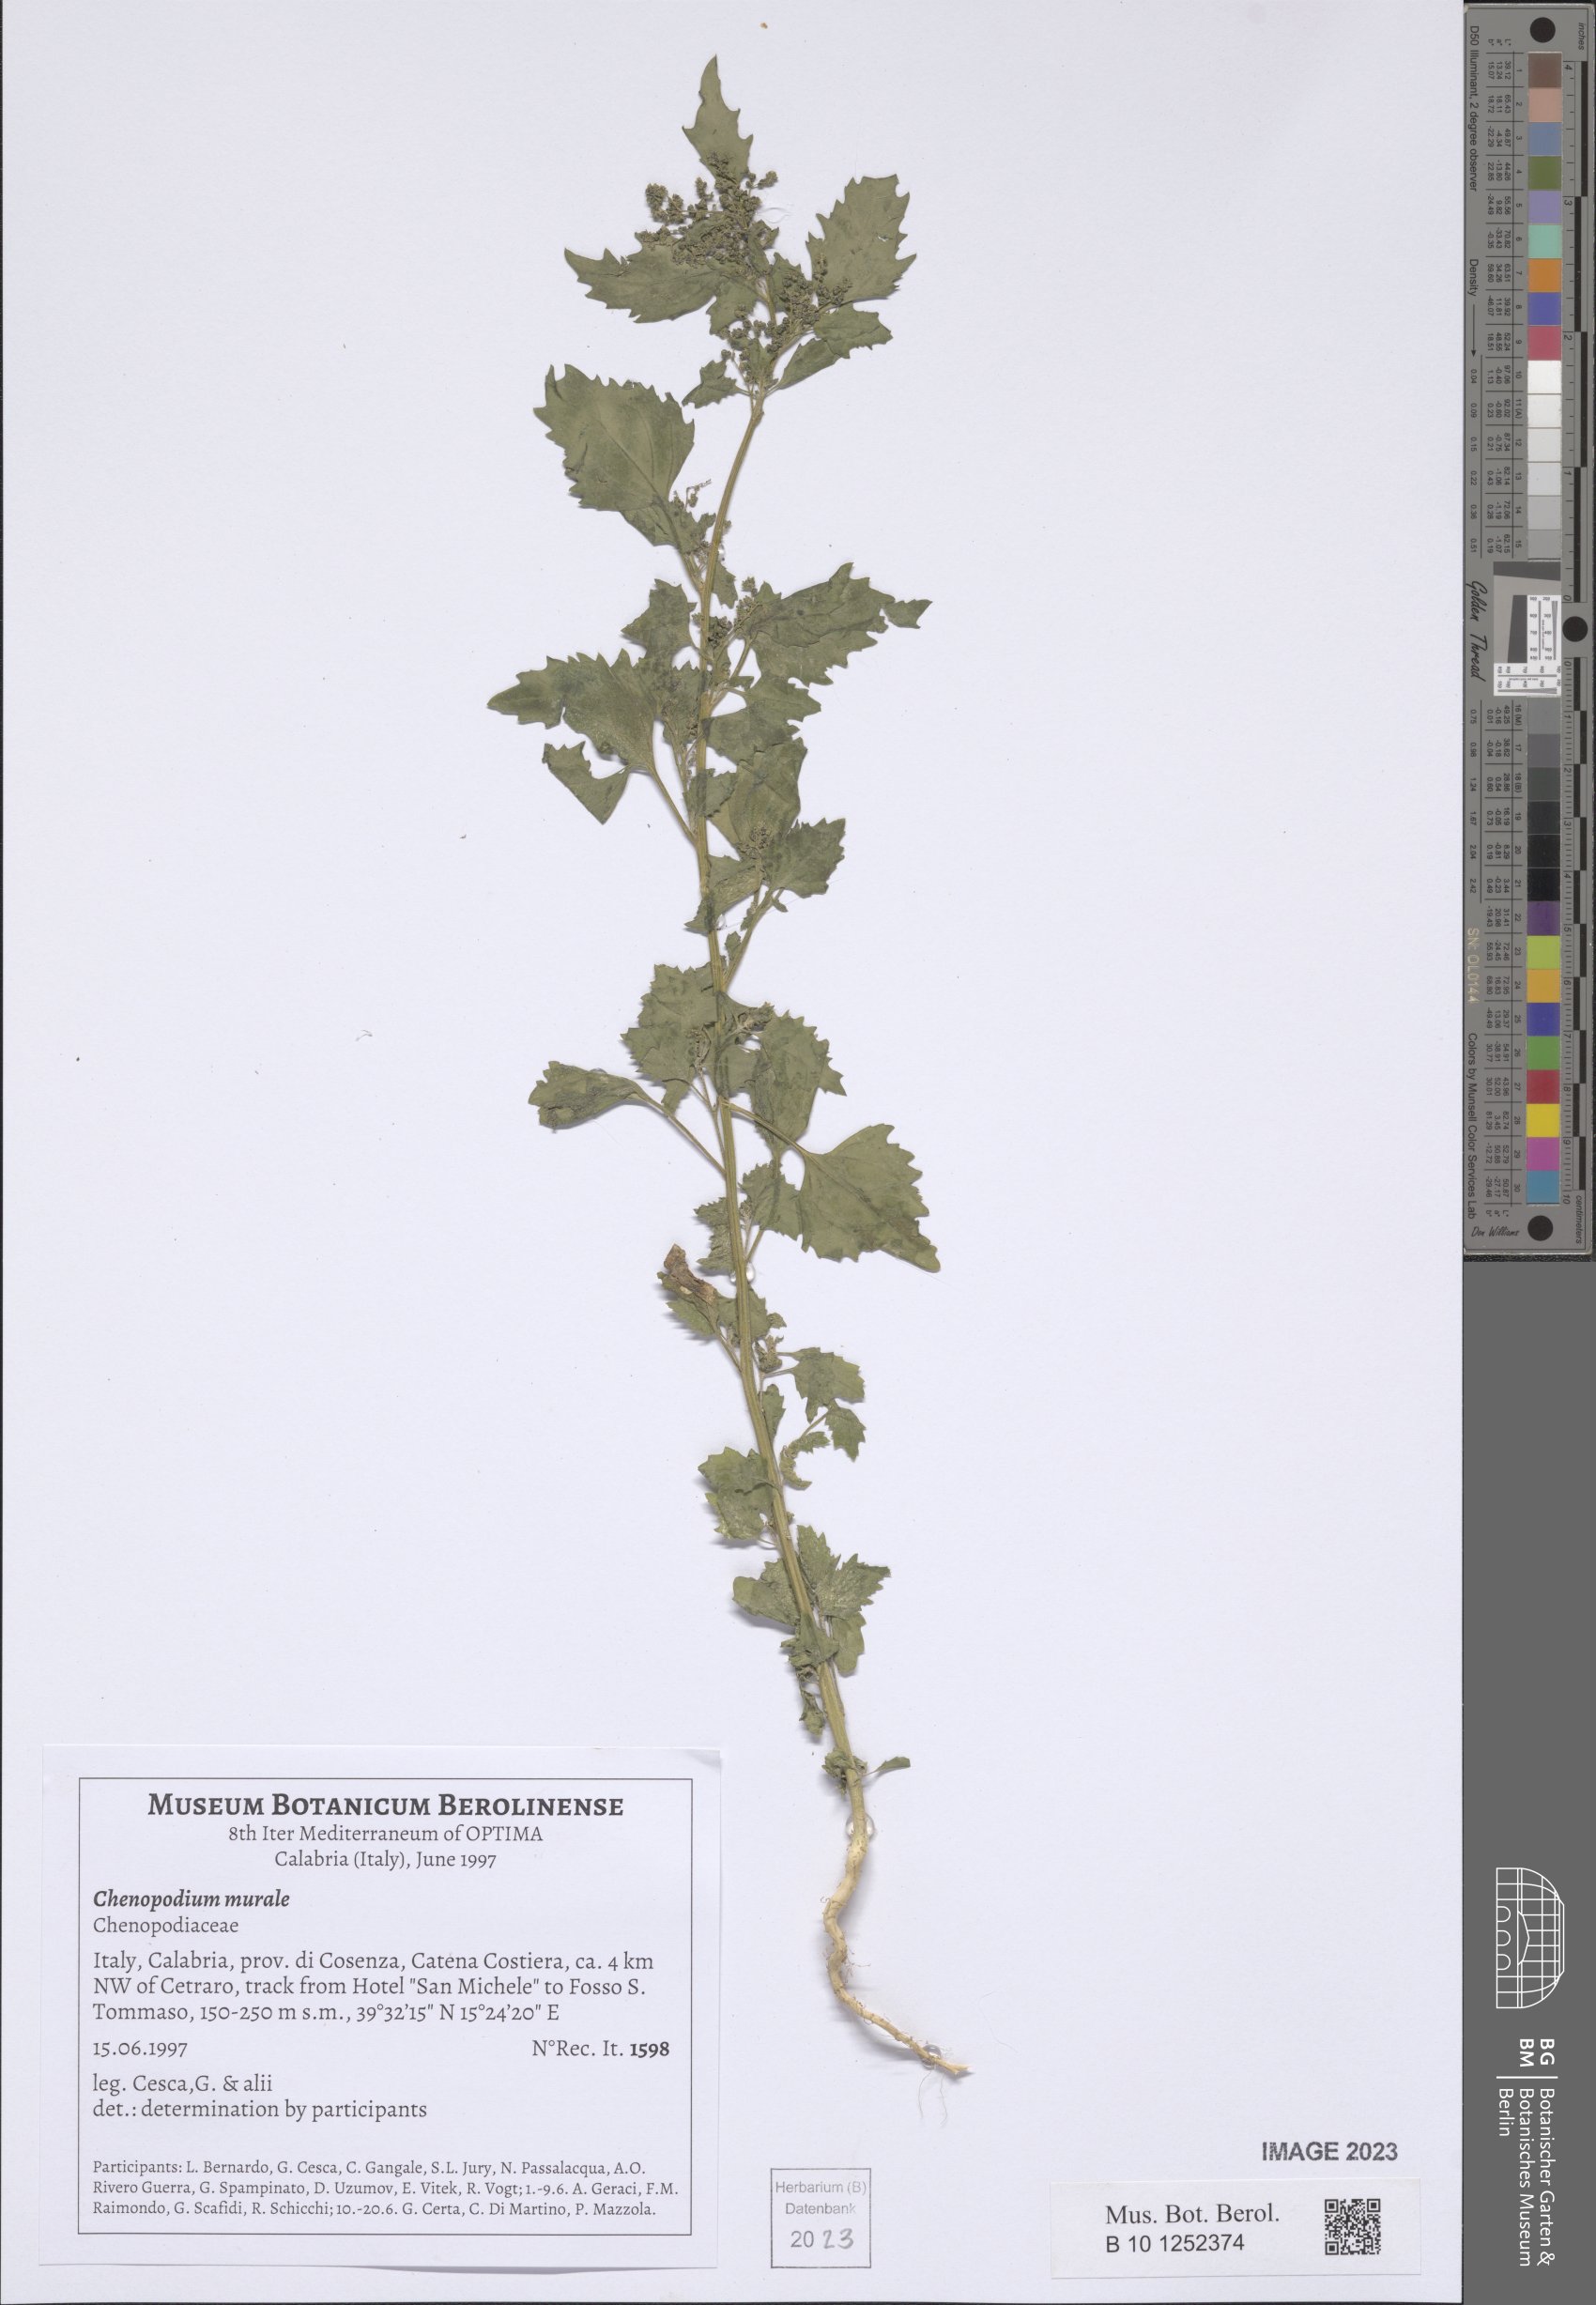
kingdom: Plantae
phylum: Tracheophyta
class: Magnoliopsida
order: Caryophyllales
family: Amaranthaceae
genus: Chenopodiastrum
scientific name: Chenopodiastrum murale
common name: Sowbane
